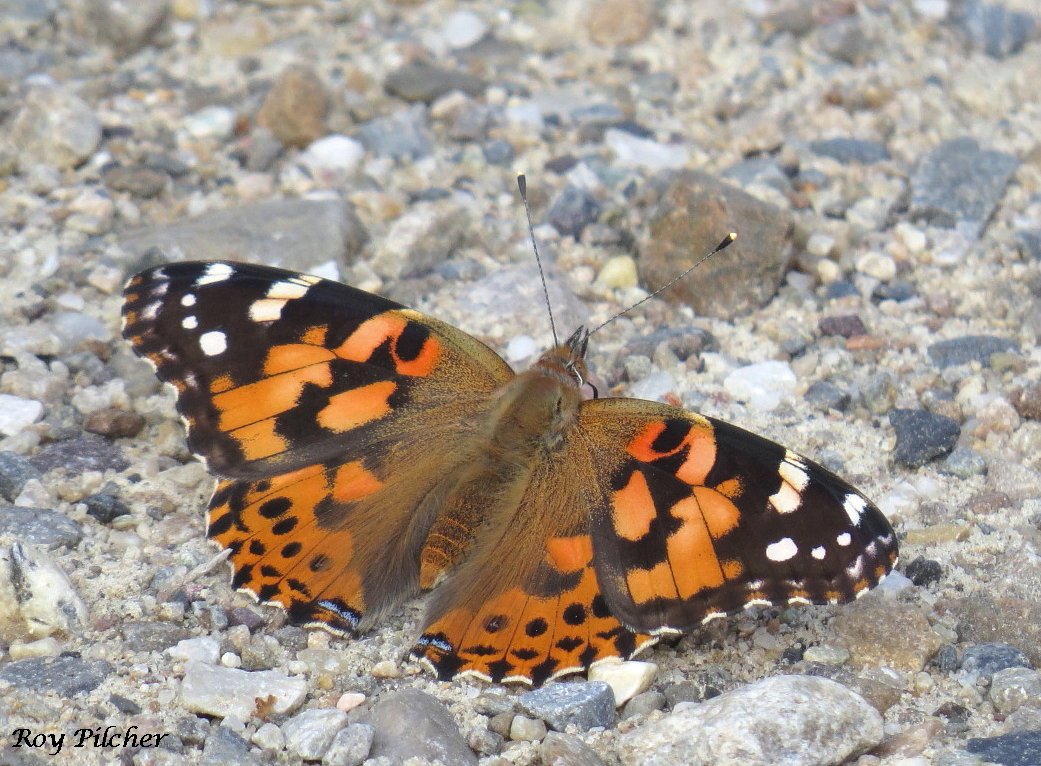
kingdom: Animalia
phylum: Arthropoda
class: Insecta
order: Lepidoptera
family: Nymphalidae
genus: Vanessa
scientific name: Vanessa cardui
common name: Painted Lady
